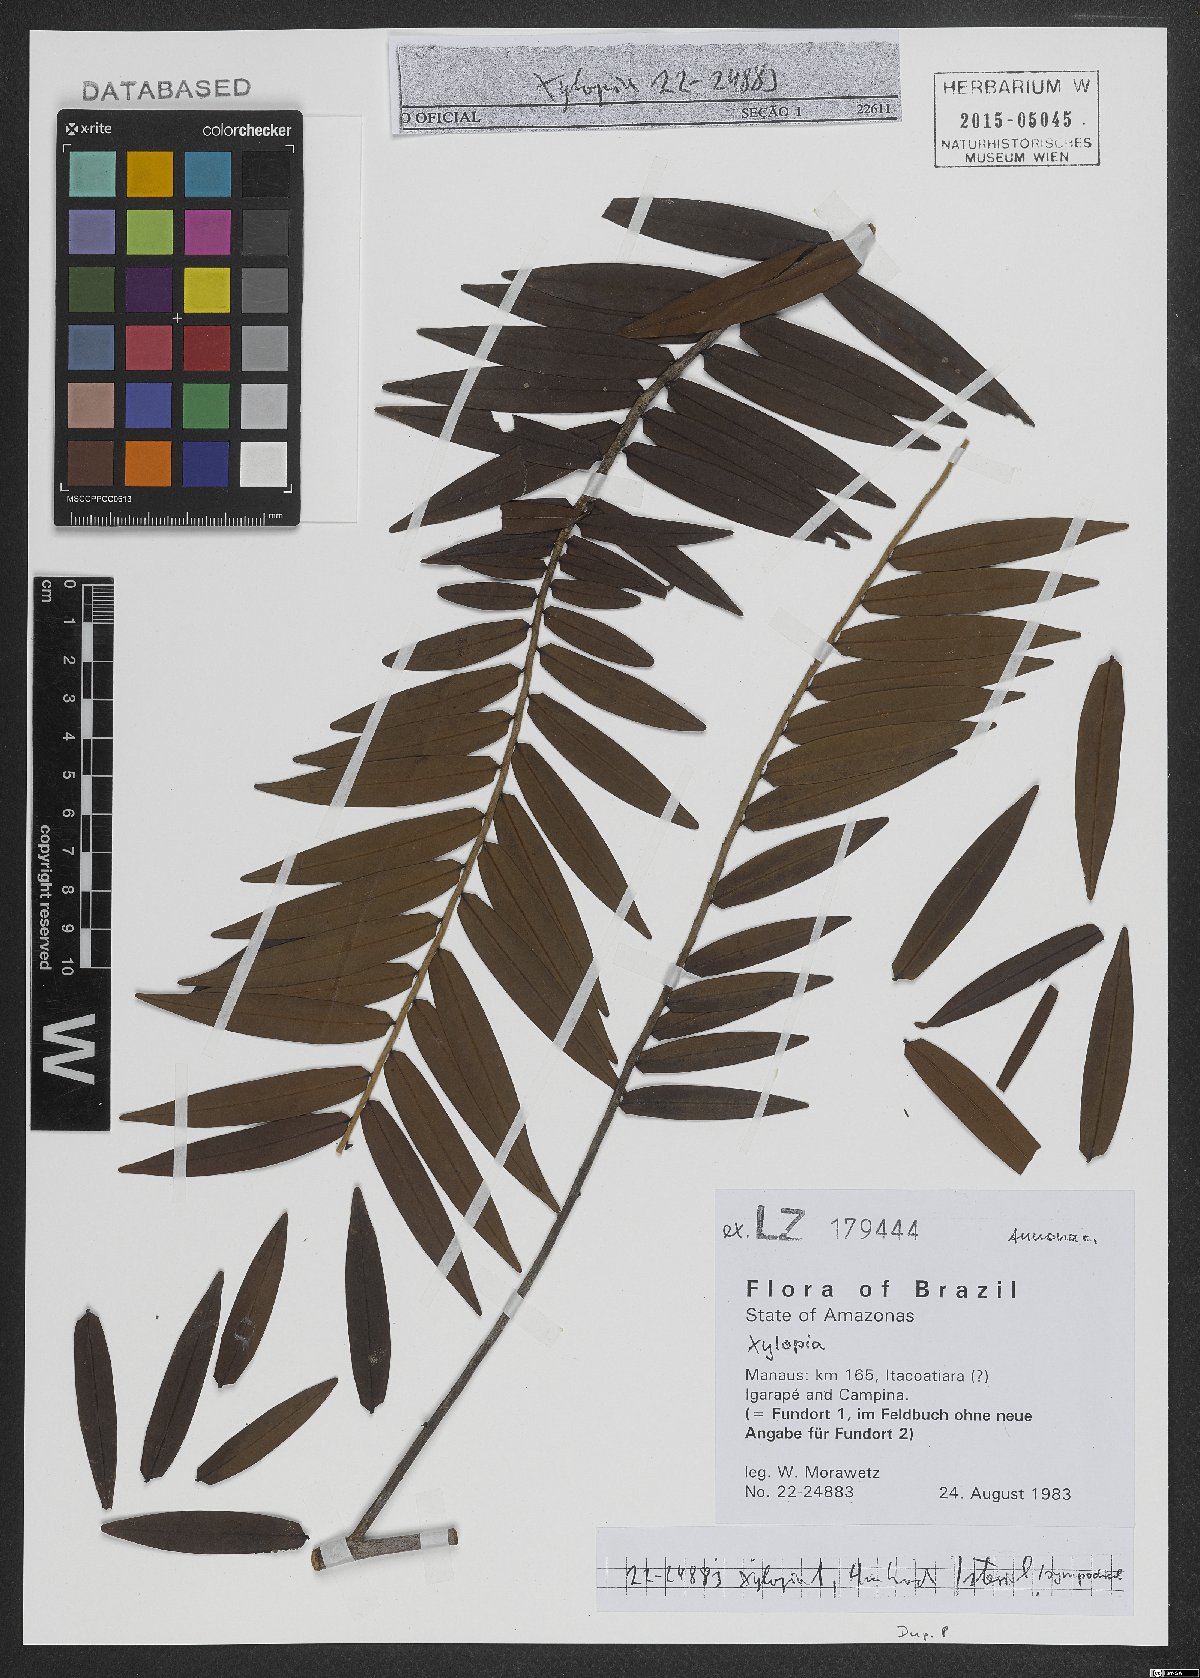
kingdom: Plantae
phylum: Tracheophyta
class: Magnoliopsida
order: Magnoliales
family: Annonaceae
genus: Xylopia
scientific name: Xylopia
